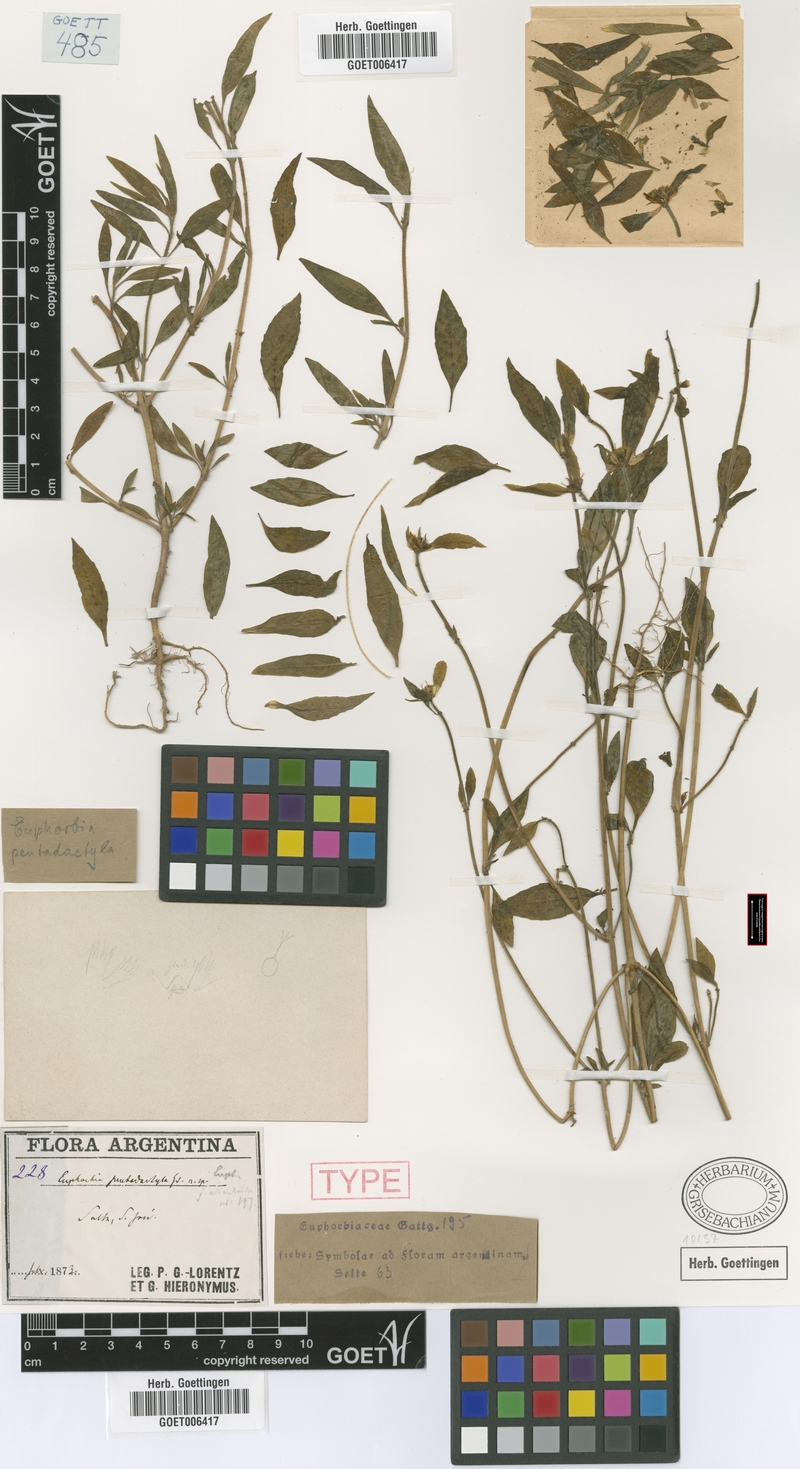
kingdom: Plantae
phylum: Tracheophyta
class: Magnoliopsida
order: Malpighiales
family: Euphorbiaceae
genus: Euphorbia
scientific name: Euphorbia pentadactyla
